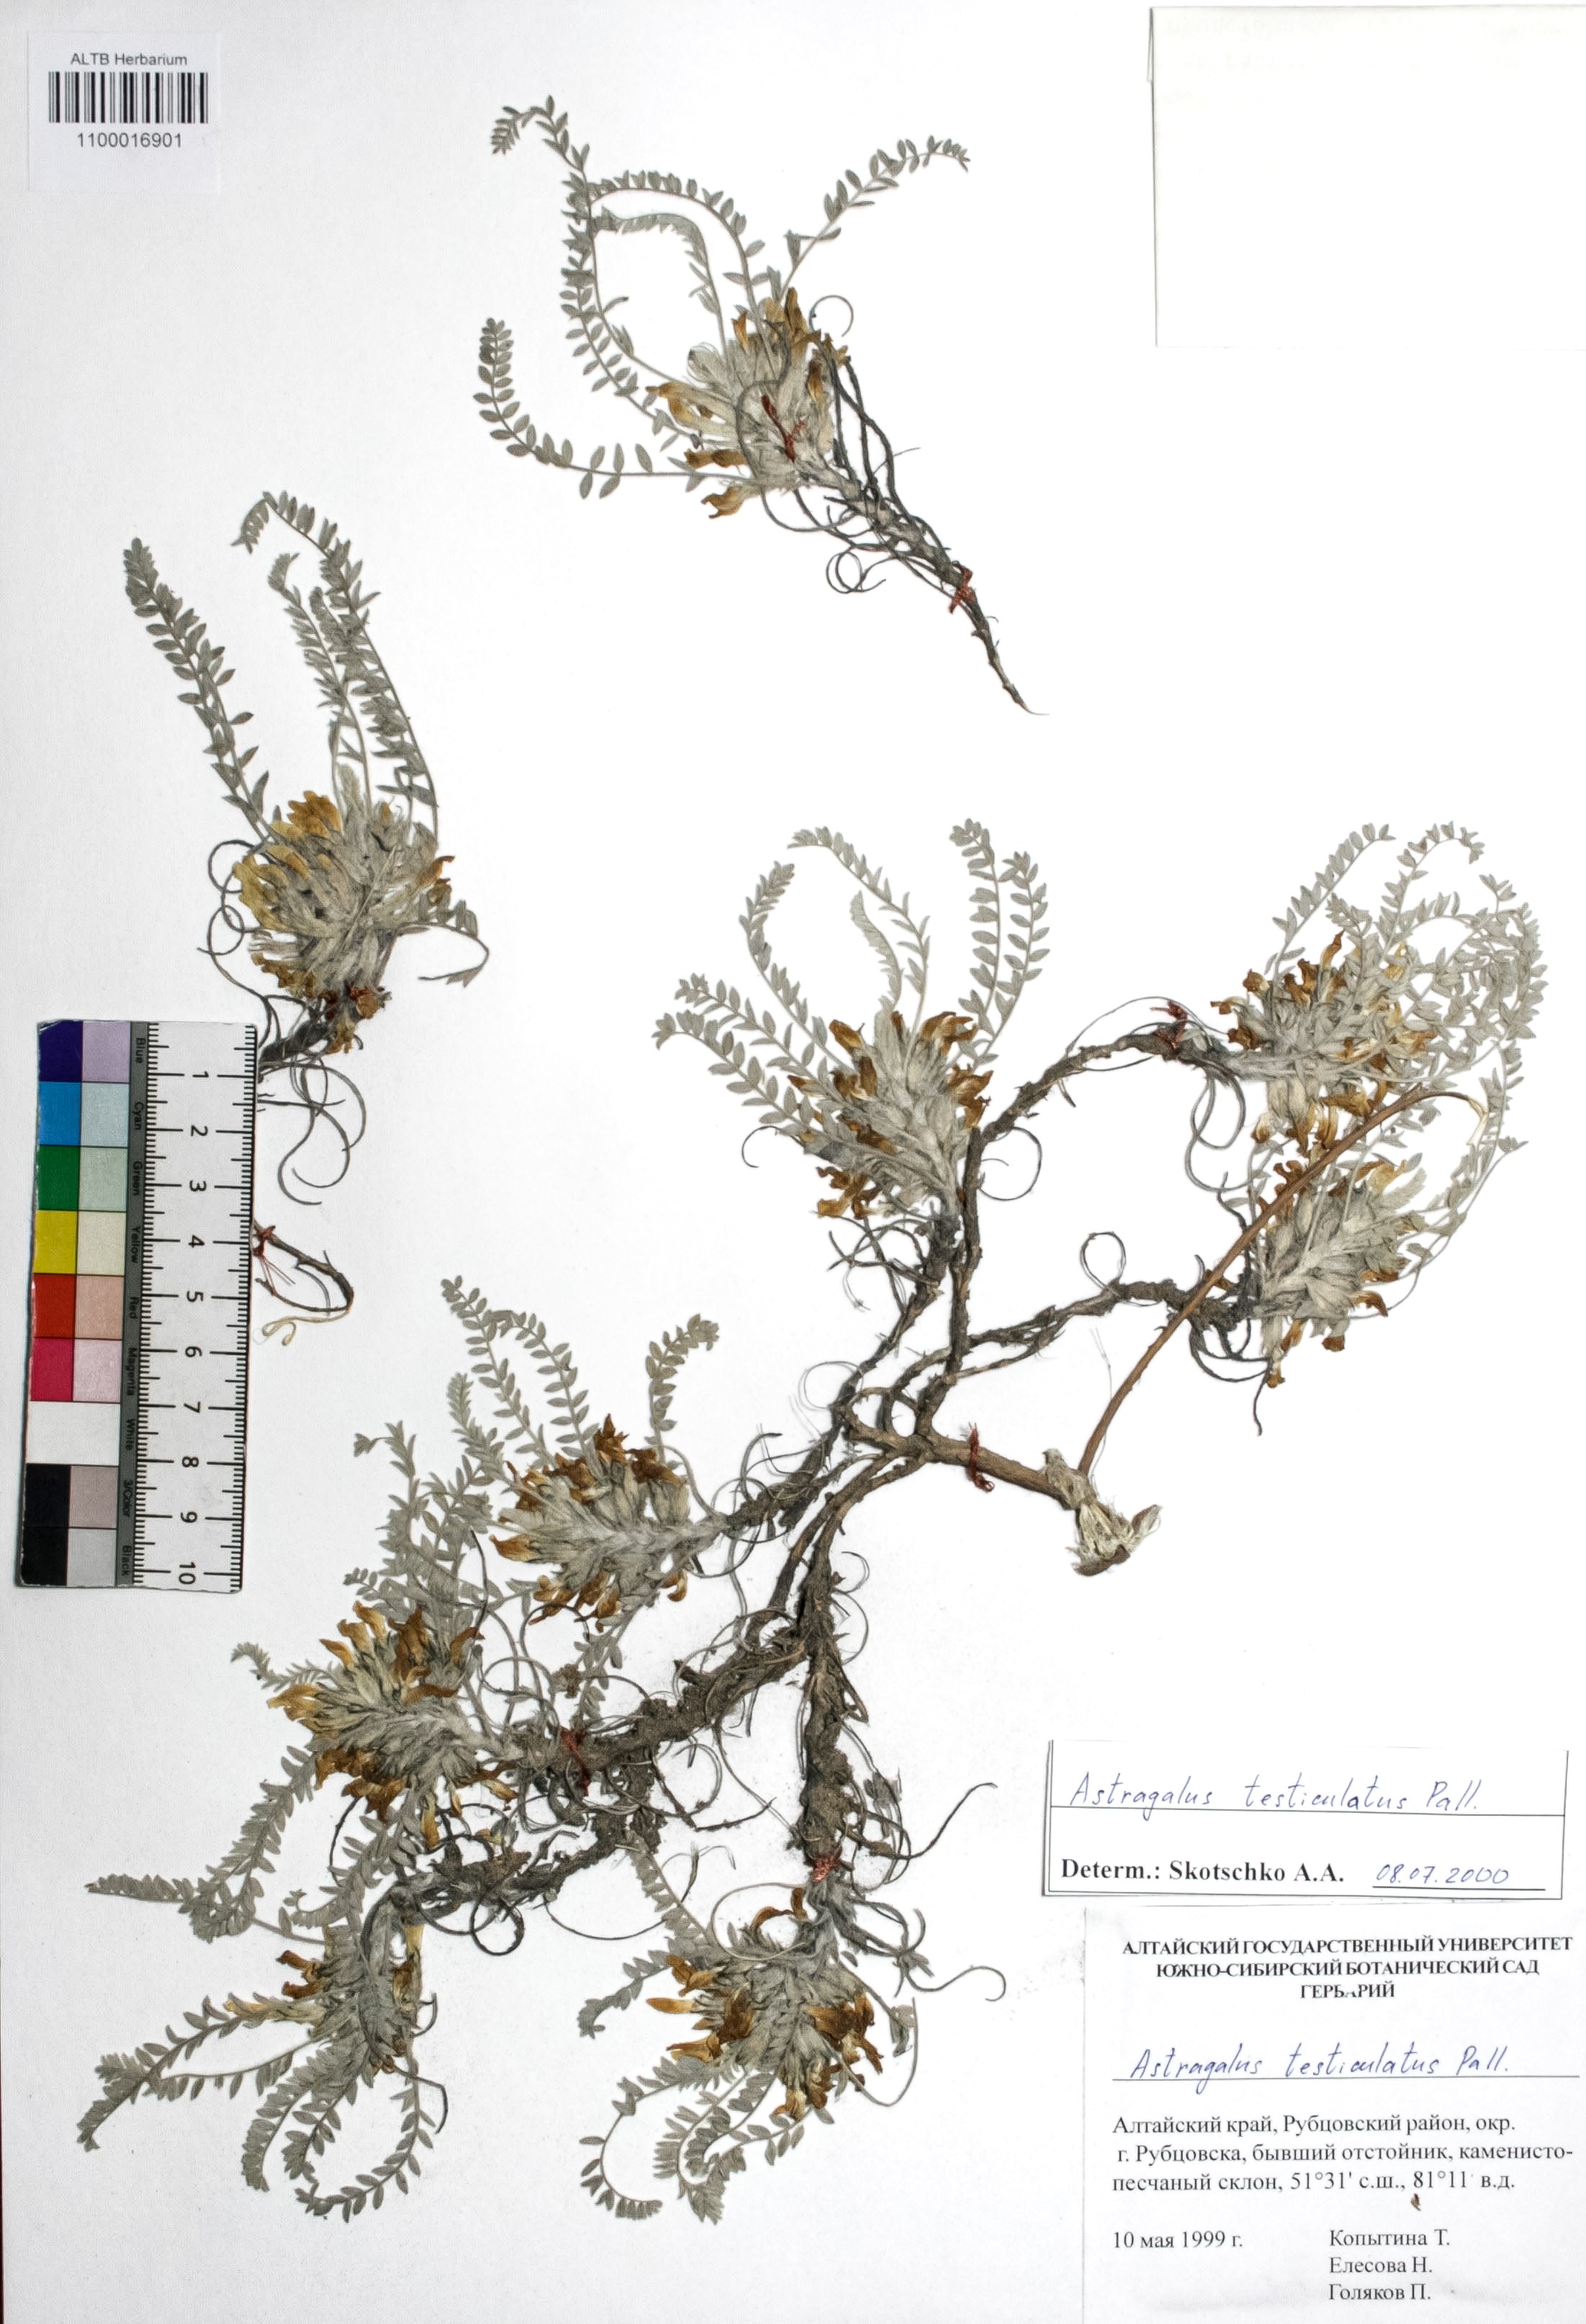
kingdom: Plantae
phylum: Tracheophyta
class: Magnoliopsida
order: Fabales
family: Fabaceae
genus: Astragalus
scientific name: Astragalus testiculatus
